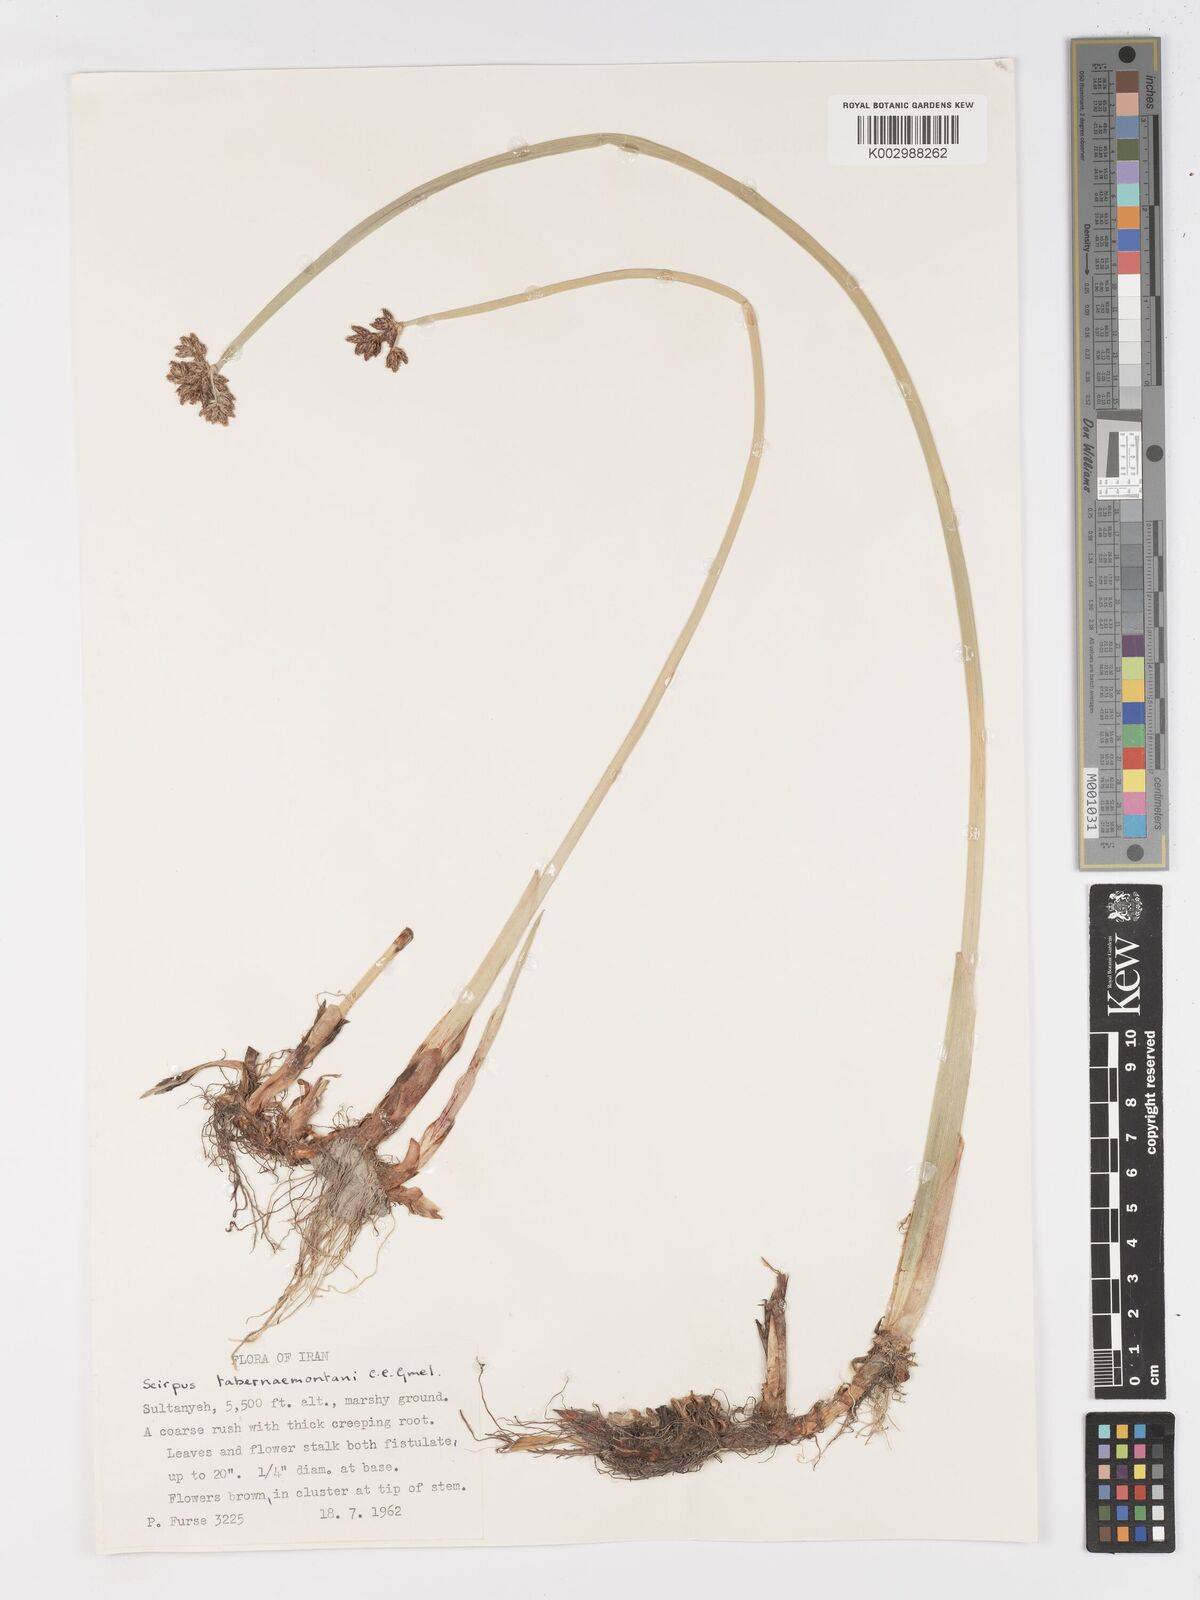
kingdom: Plantae
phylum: Tracheophyta
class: Liliopsida
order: Poales
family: Cyperaceae
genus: Schoenoplectus
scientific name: Schoenoplectus tabernaemontani
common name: Grey club-rush
